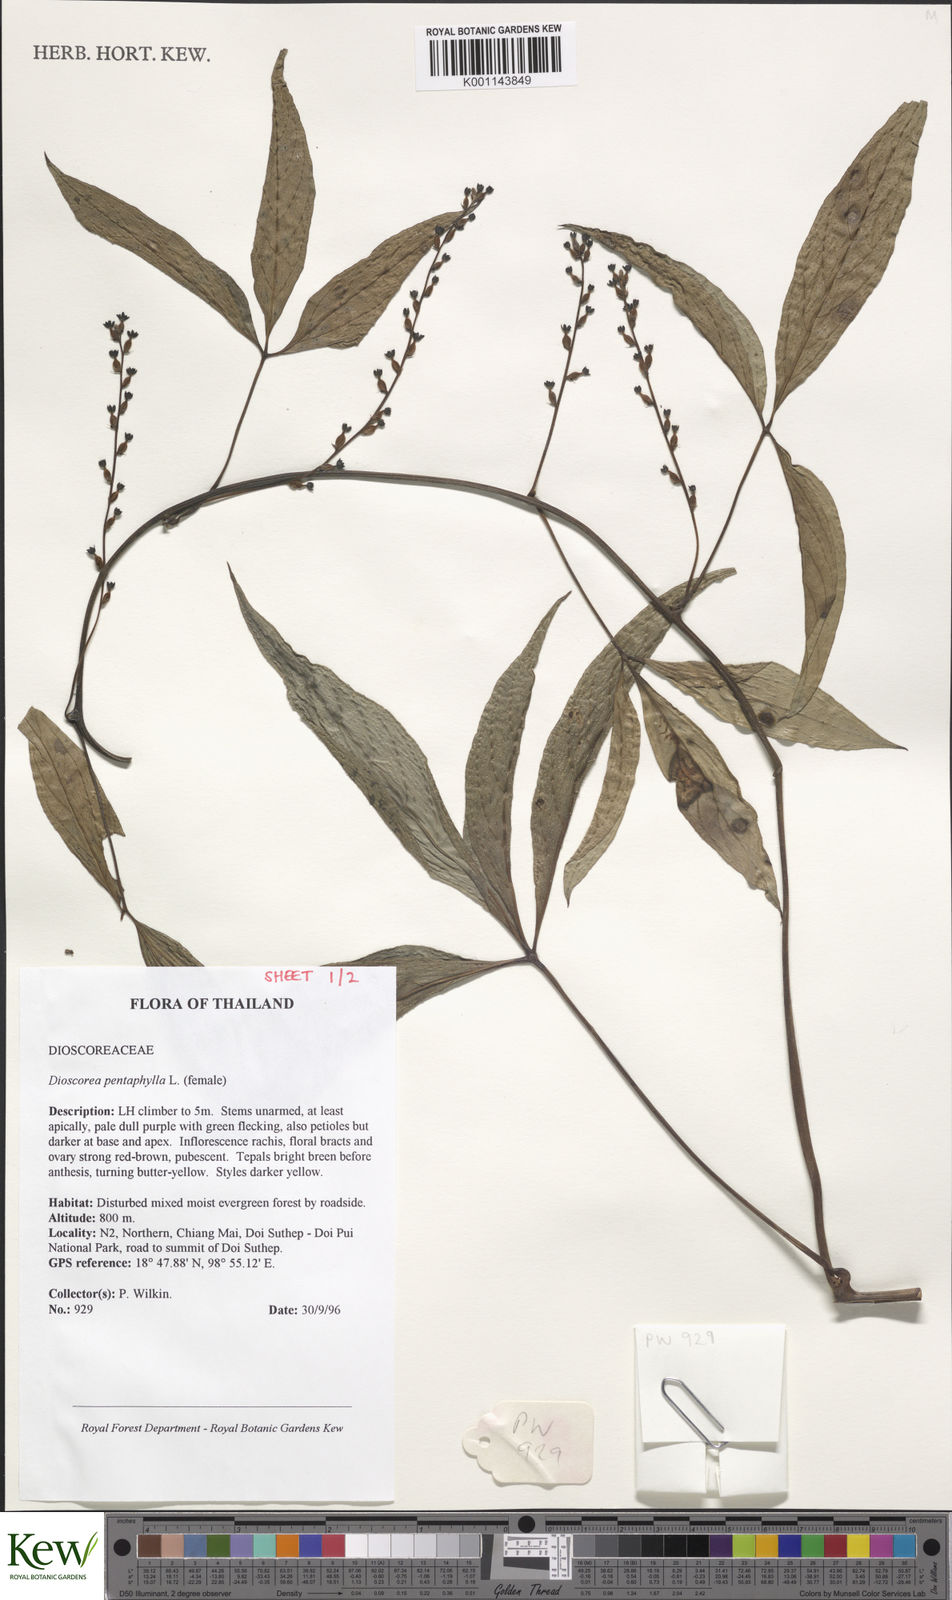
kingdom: Plantae
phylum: Tracheophyta
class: Liliopsida
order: Dioscoreales
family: Dioscoreaceae
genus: Dioscorea
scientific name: Dioscorea pentaphylla
